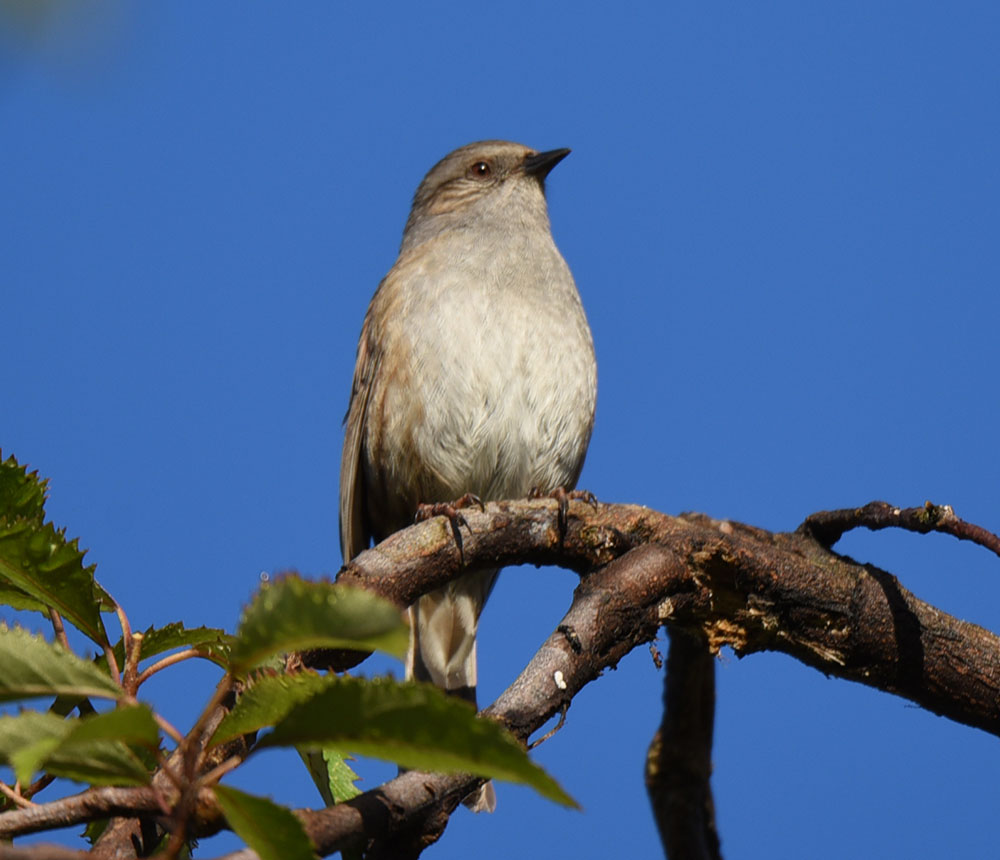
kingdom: Animalia
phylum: Chordata
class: Aves
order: Passeriformes
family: Prunellidae
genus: Prunella
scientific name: Prunella modularis
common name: Dunnock
